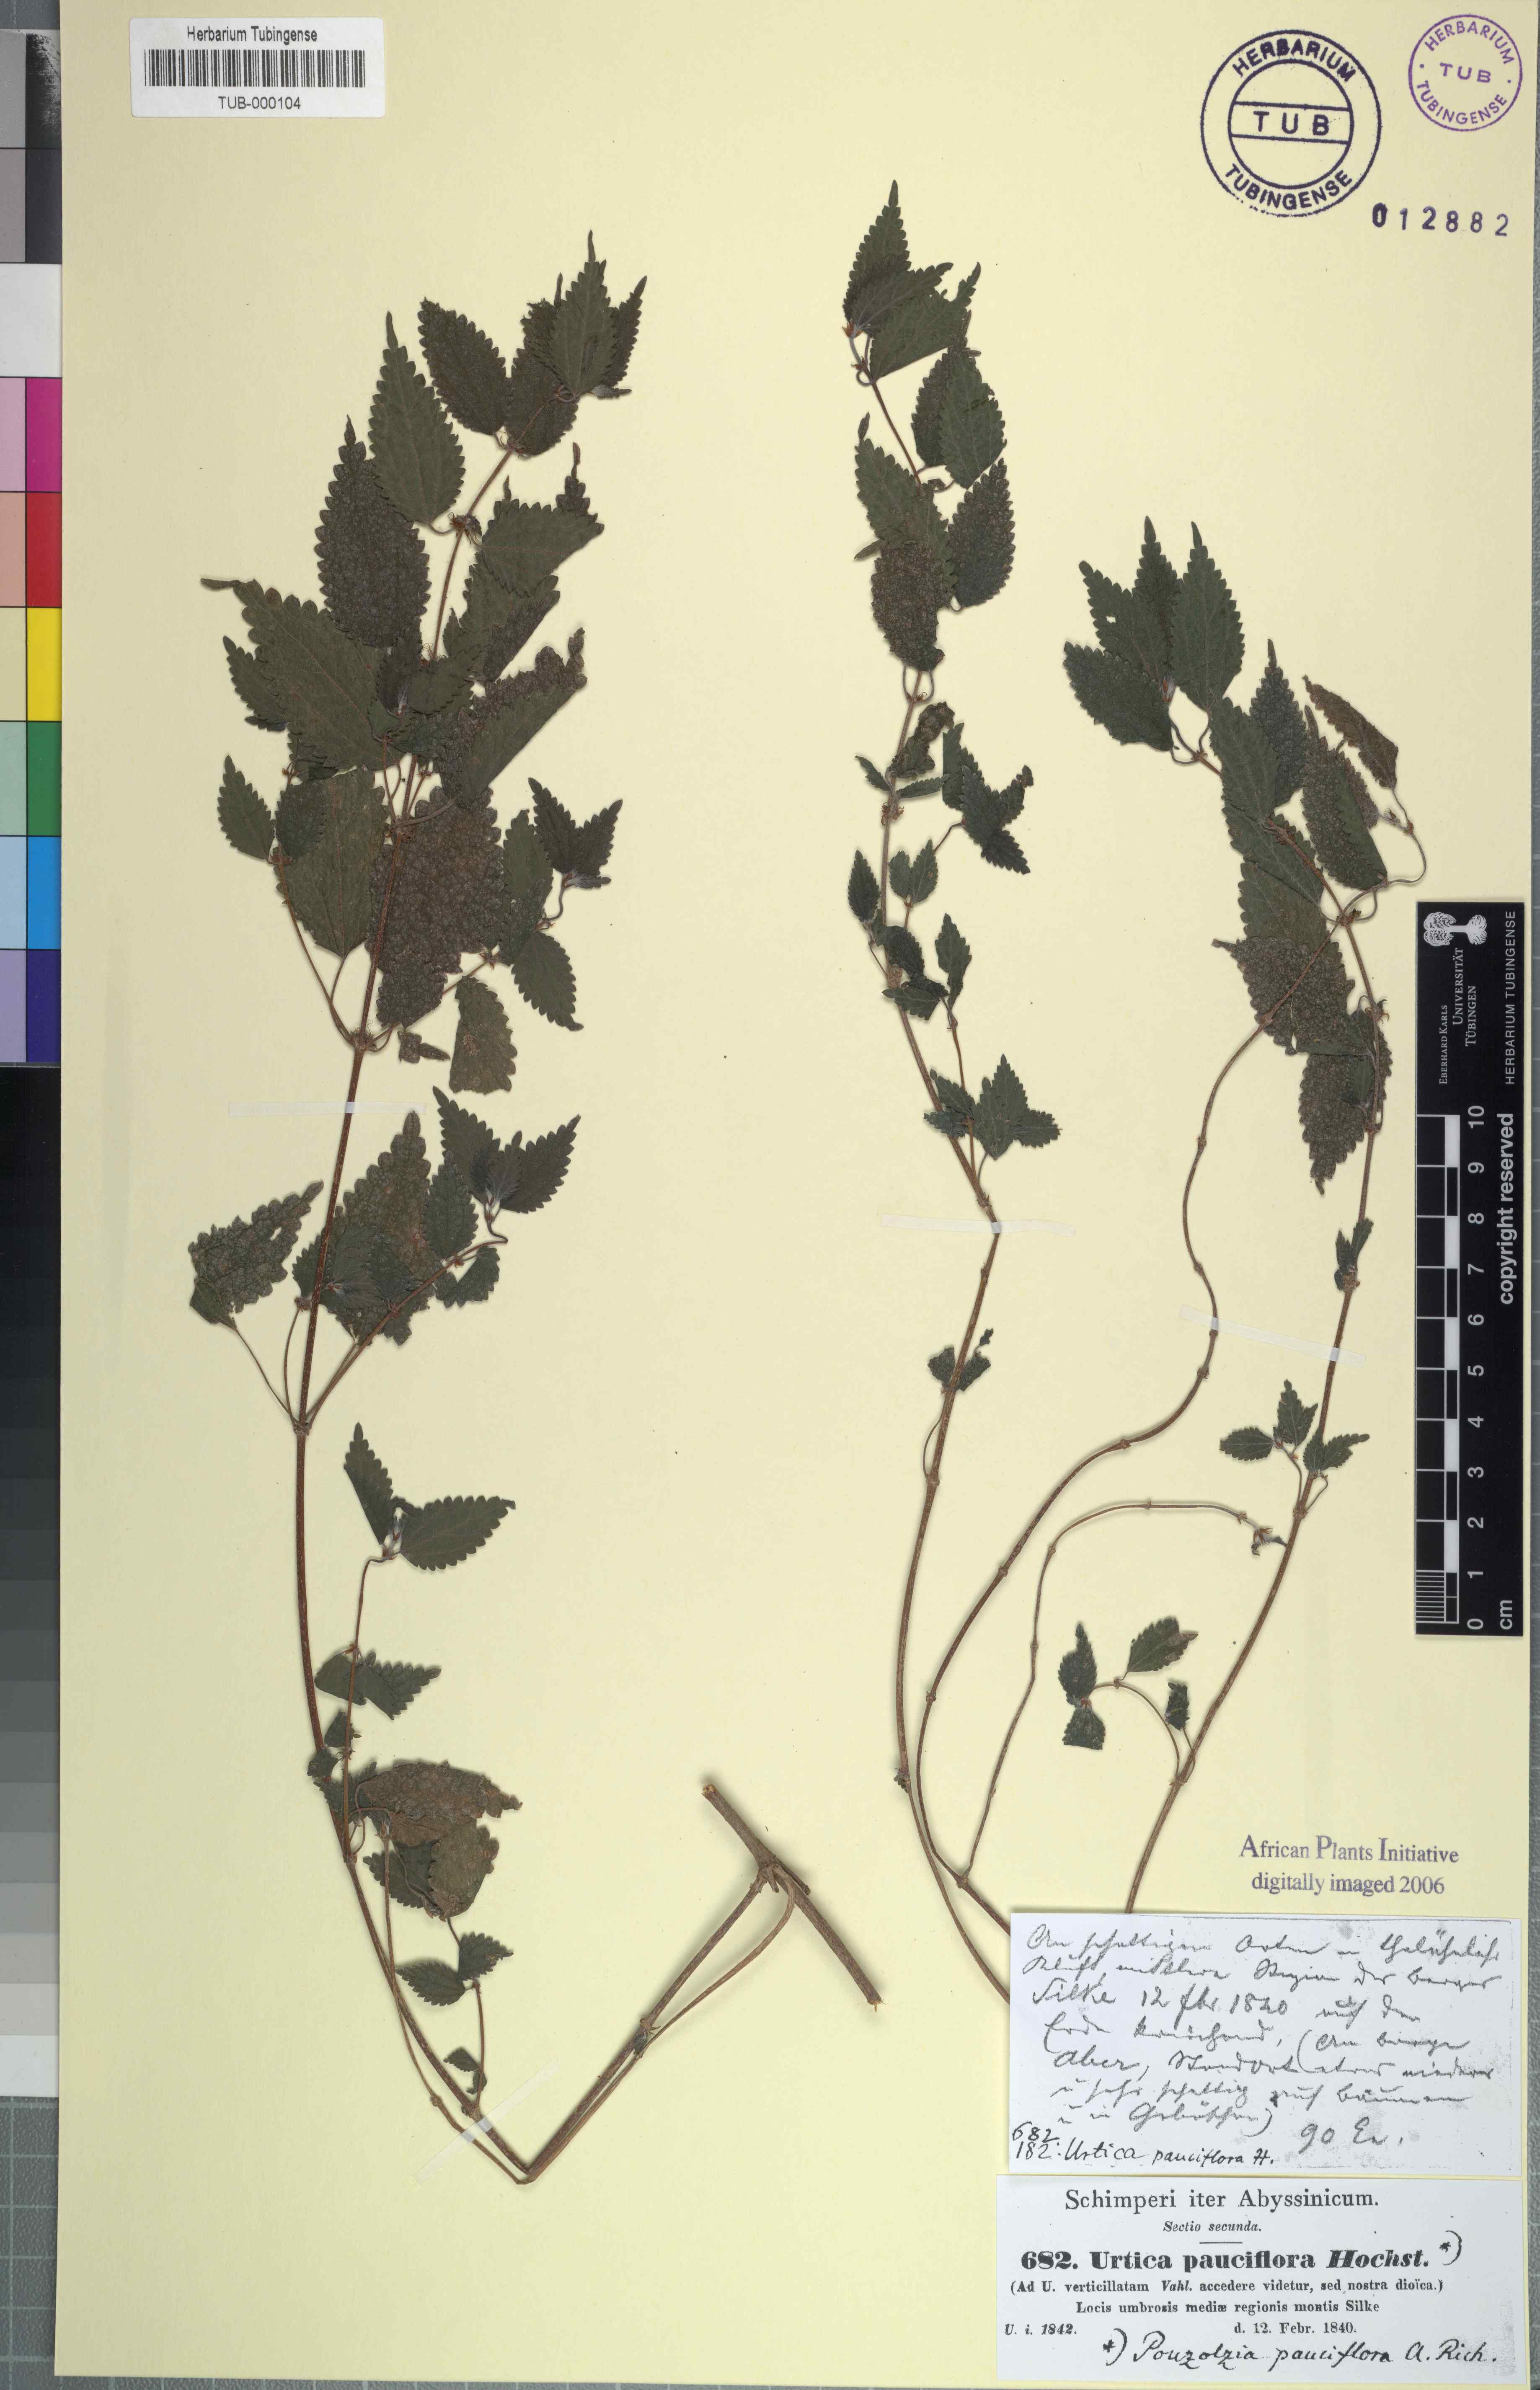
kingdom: Plantae
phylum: Tracheophyta
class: Magnoliopsida
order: Rosales
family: Urticaceae
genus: Droguetia
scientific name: Droguetia iners
